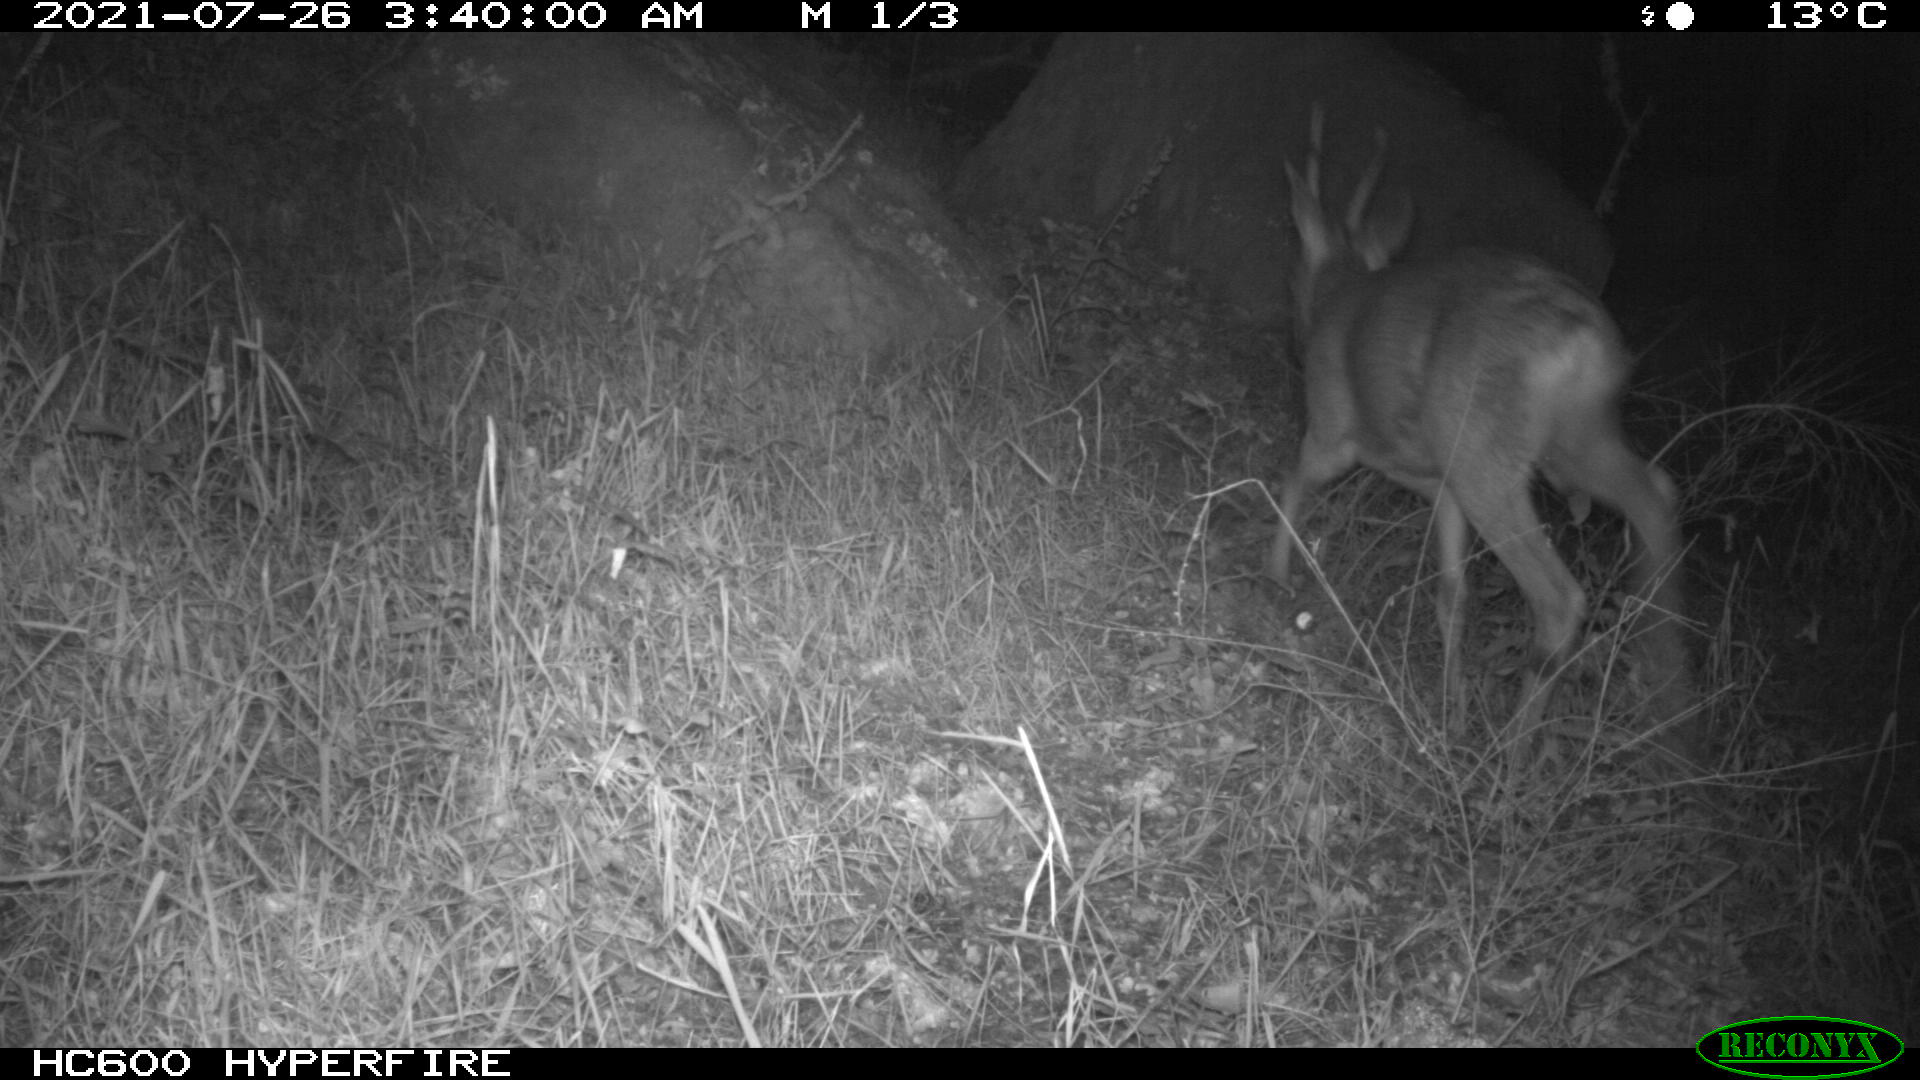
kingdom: Animalia
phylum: Chordata
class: Mammalia
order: Artiodactyla
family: Cervidae
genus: Capreolus
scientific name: Capreolus capreolus
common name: Western roe deer
